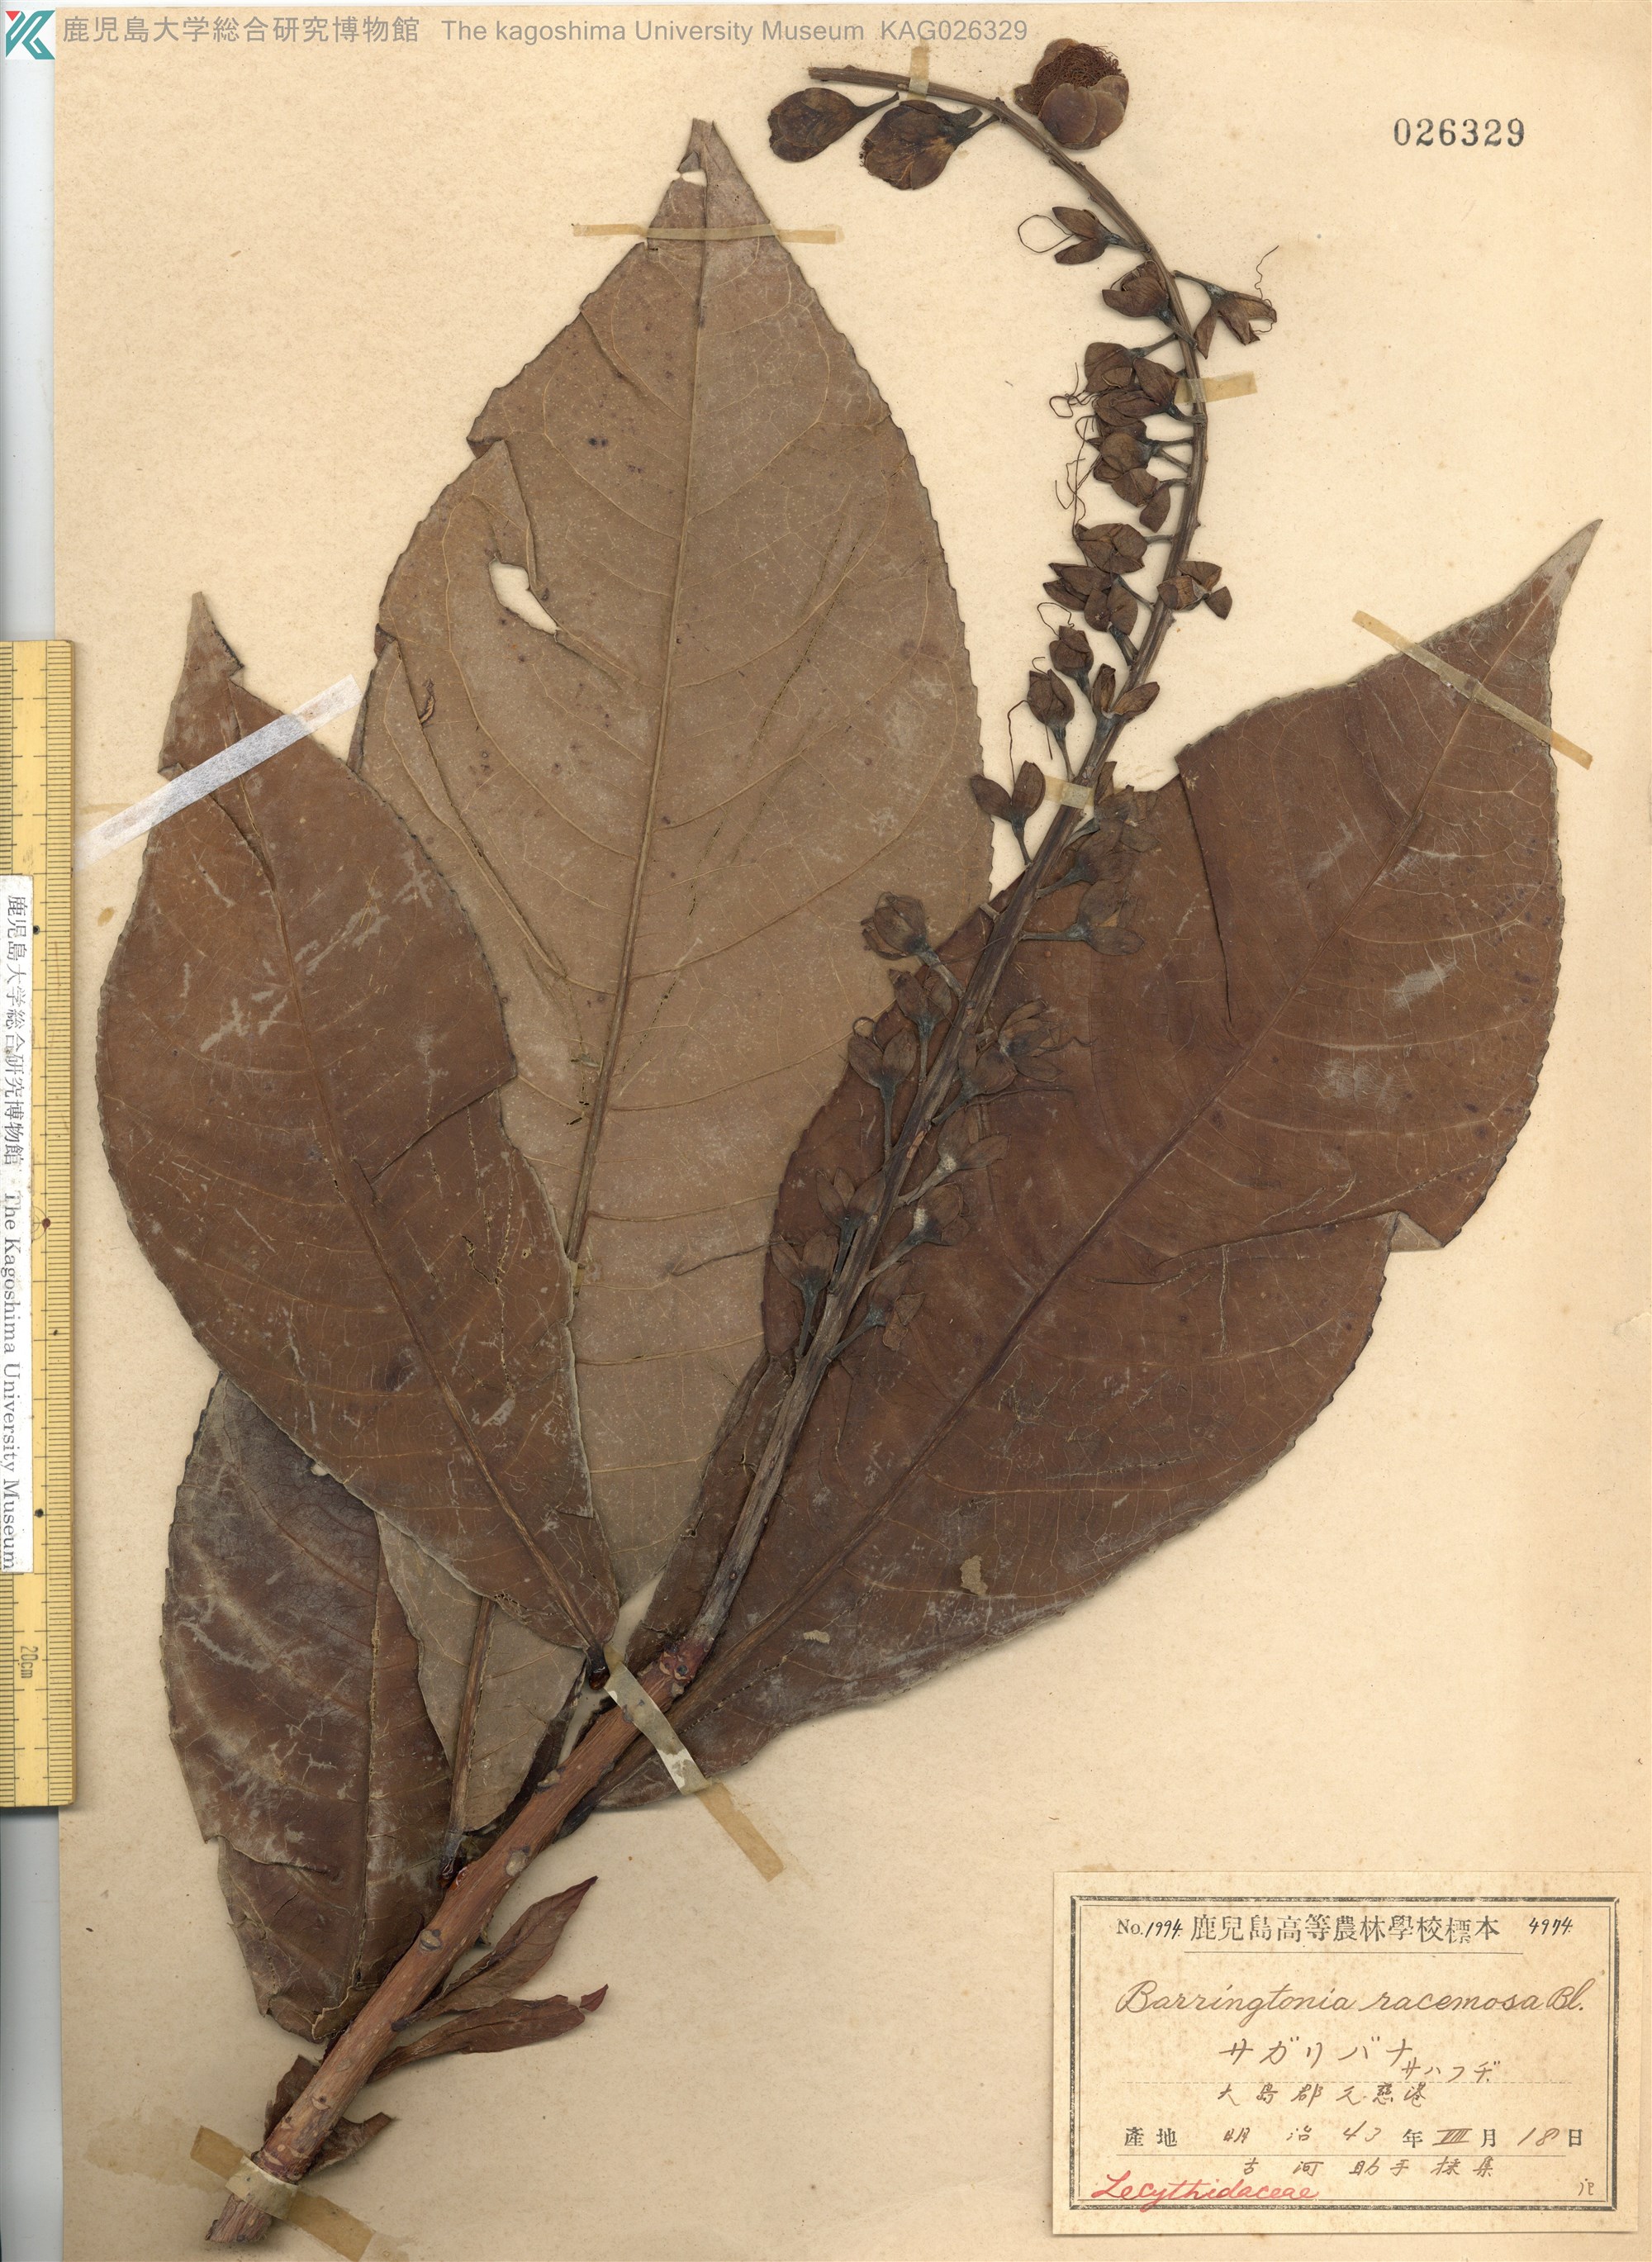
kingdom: Plantae
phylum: Tracheophyta
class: Magnoliopsida
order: Ericales
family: Lecythidaceae
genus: Barringtonia
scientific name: Barringtonia racemosa
